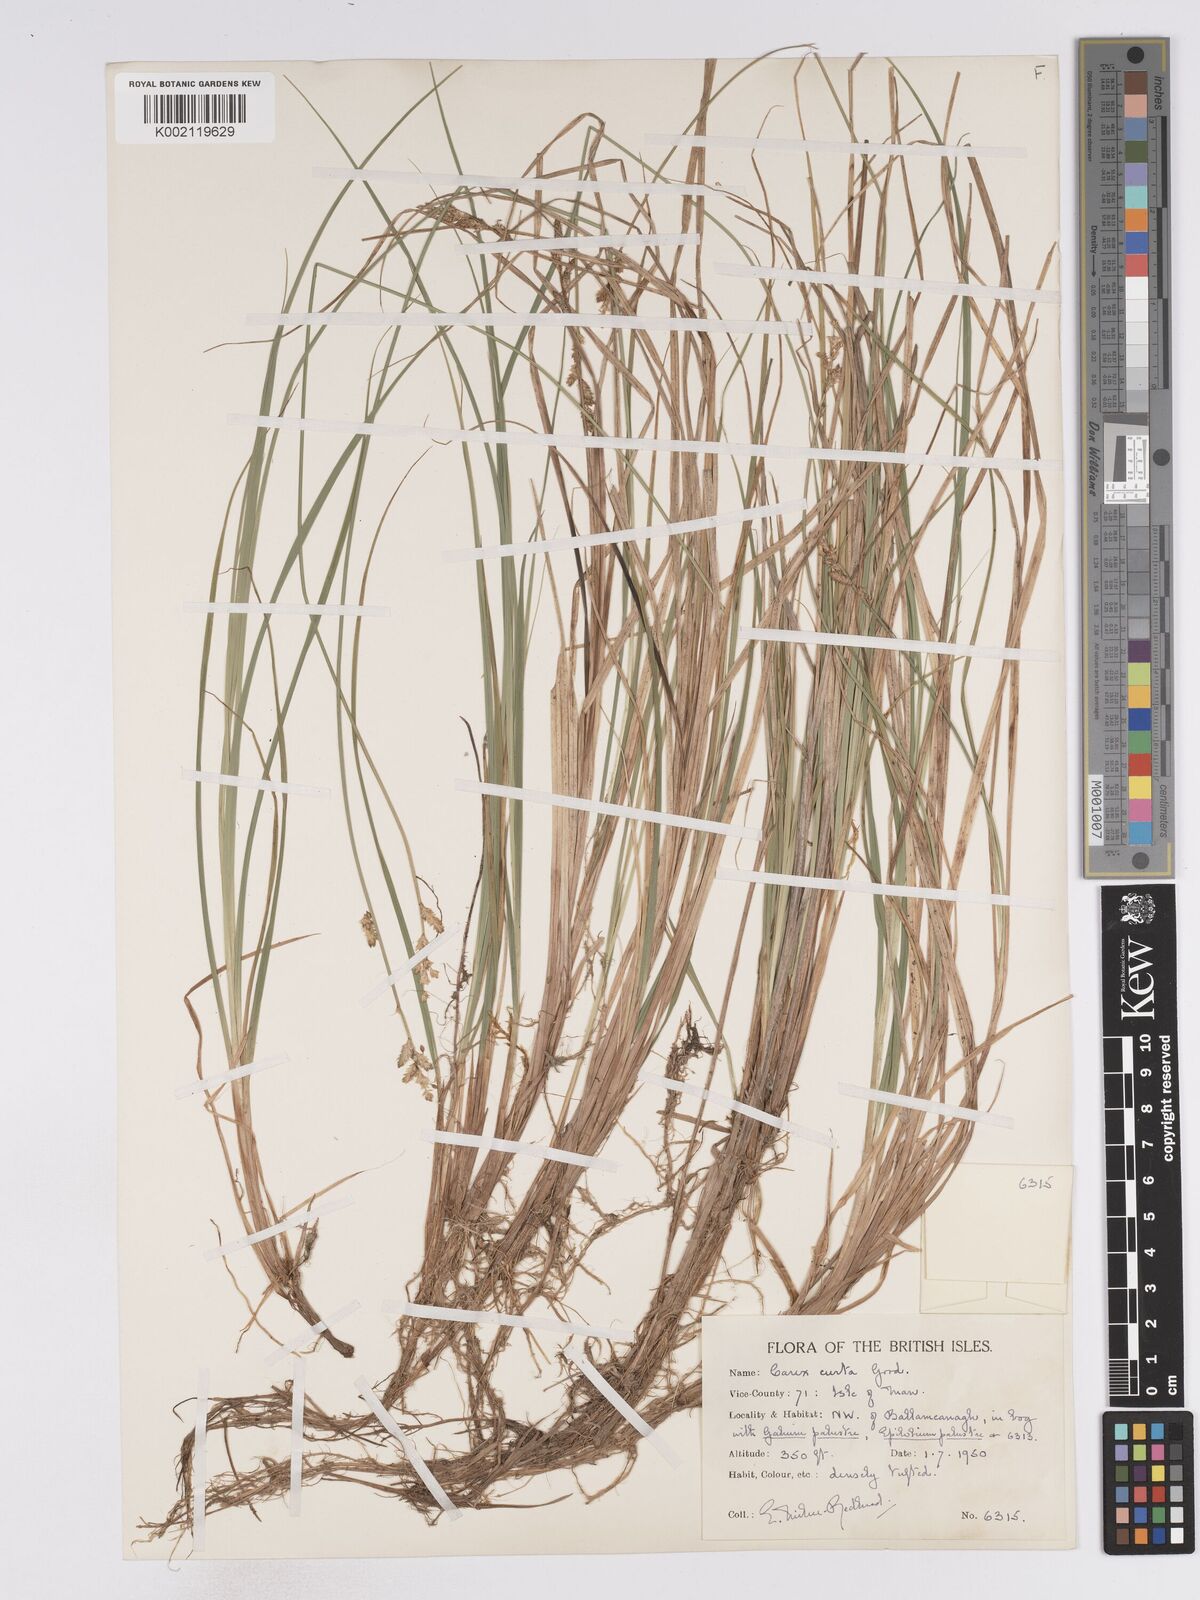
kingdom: Plantae
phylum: Tracheophyta
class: Liliopsida
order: Poales
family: Cyperaceae
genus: Carex
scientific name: Carex curta
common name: White sedge
